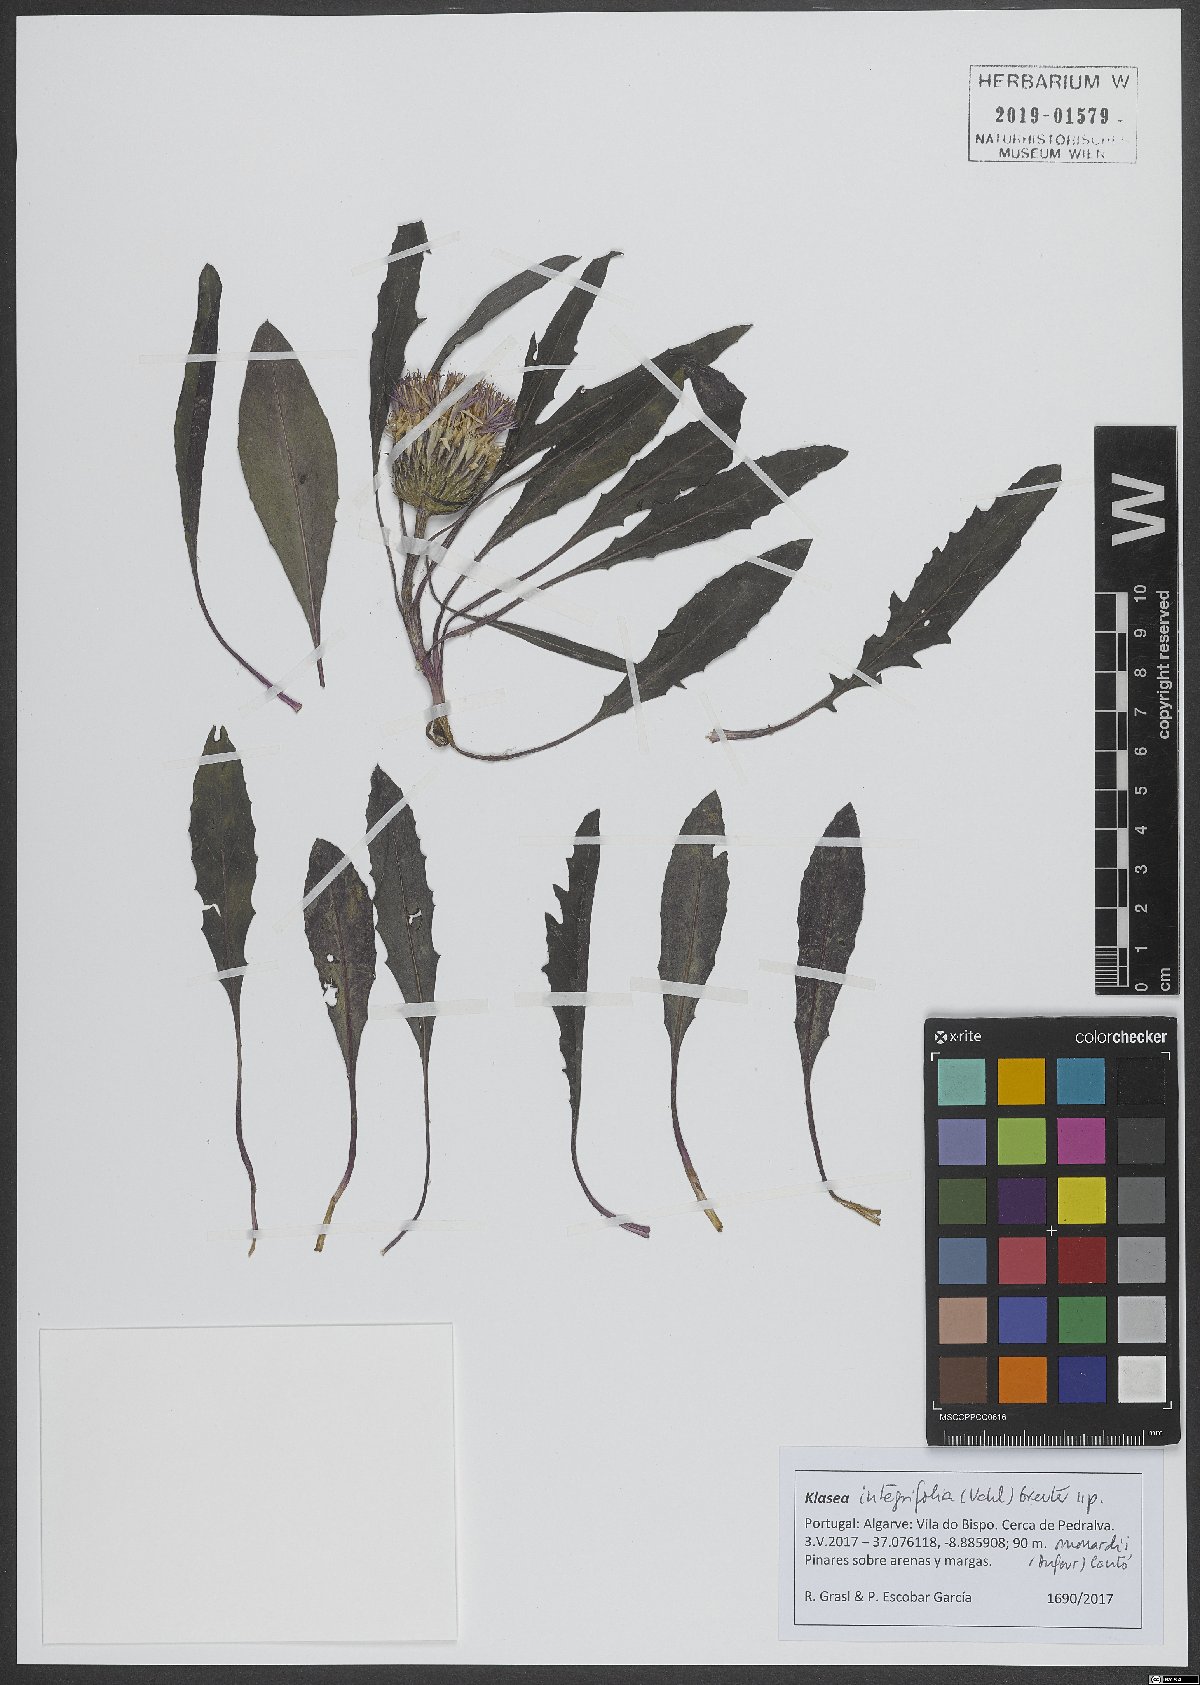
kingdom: Plantae
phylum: Tracheophyta
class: Magnoliopsida
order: Asterales
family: Asteraceae
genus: Klasea
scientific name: Klasea integrifolia
